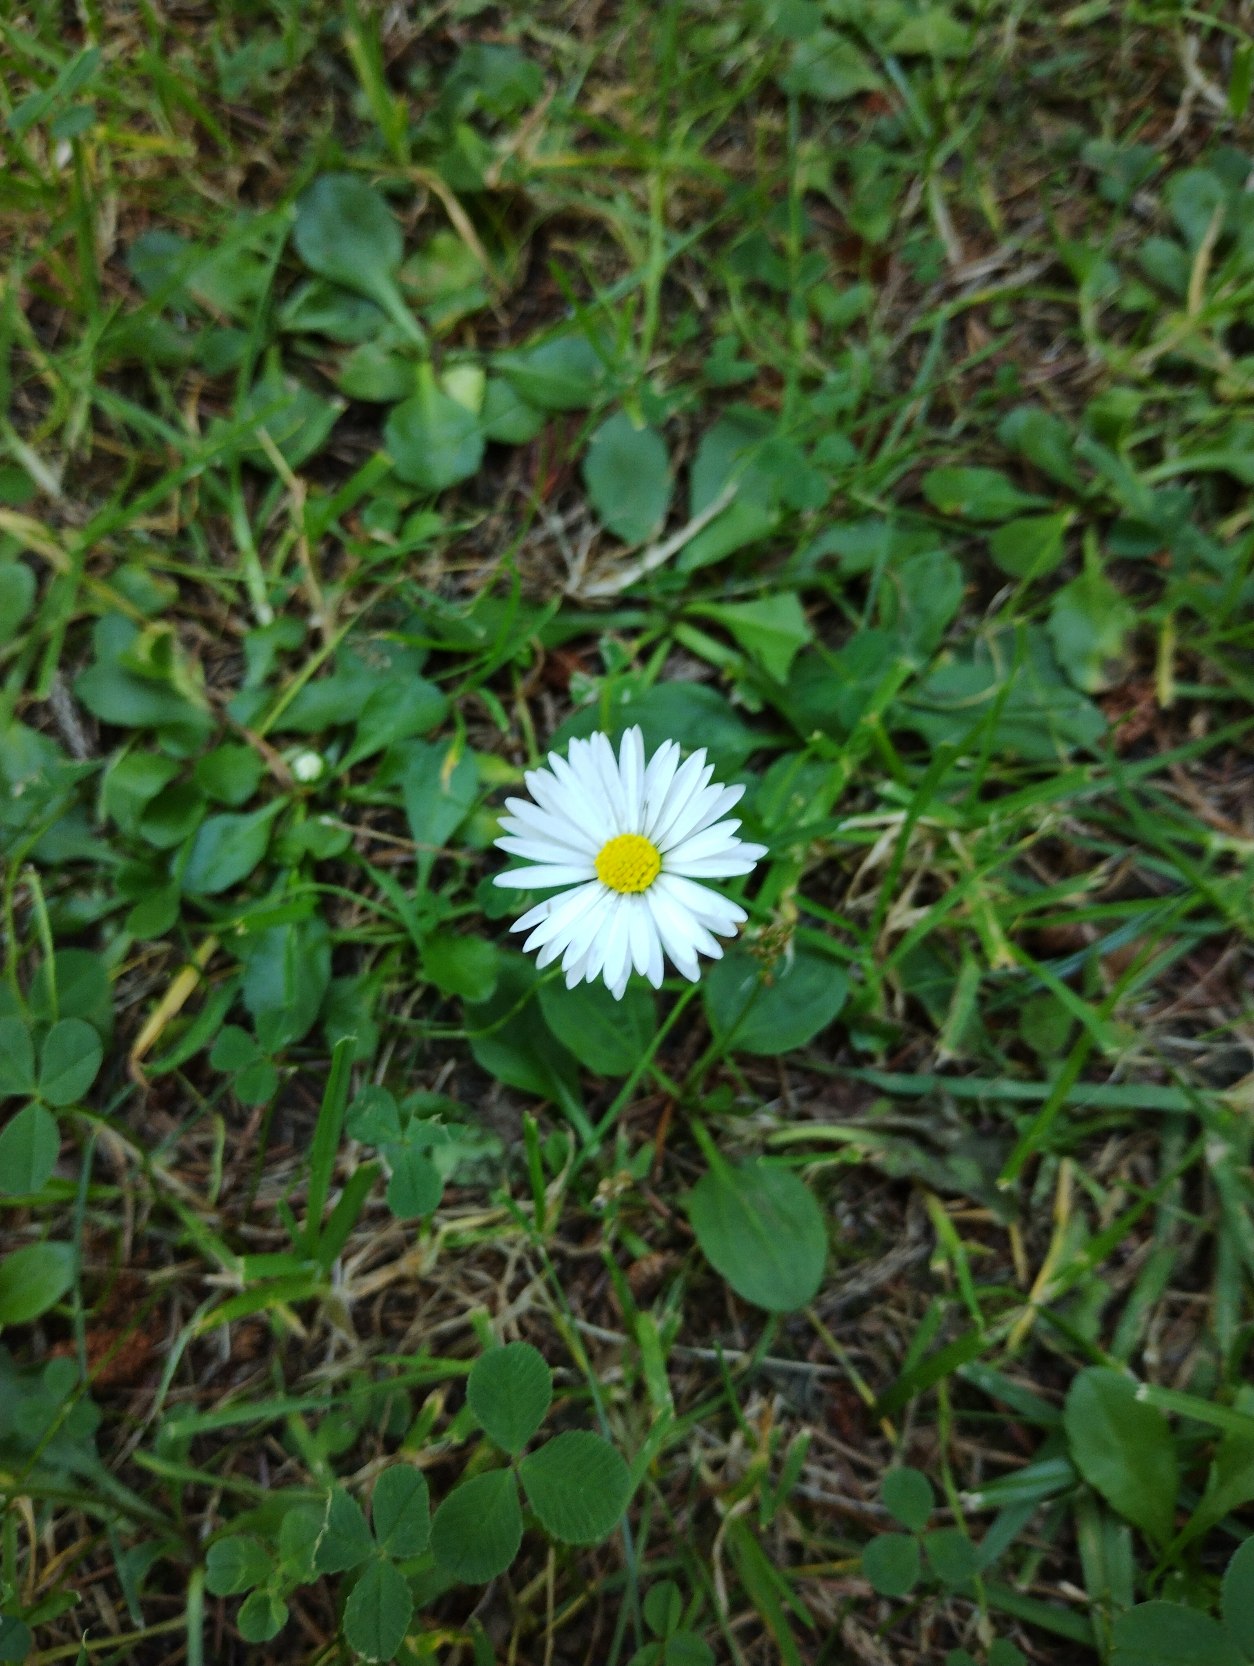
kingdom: Plantae
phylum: Tracheophyta
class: Magnoliopsida
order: Asterales
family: Asteraceae
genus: Bellis
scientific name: Bellis perennis
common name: Tusindfryd
